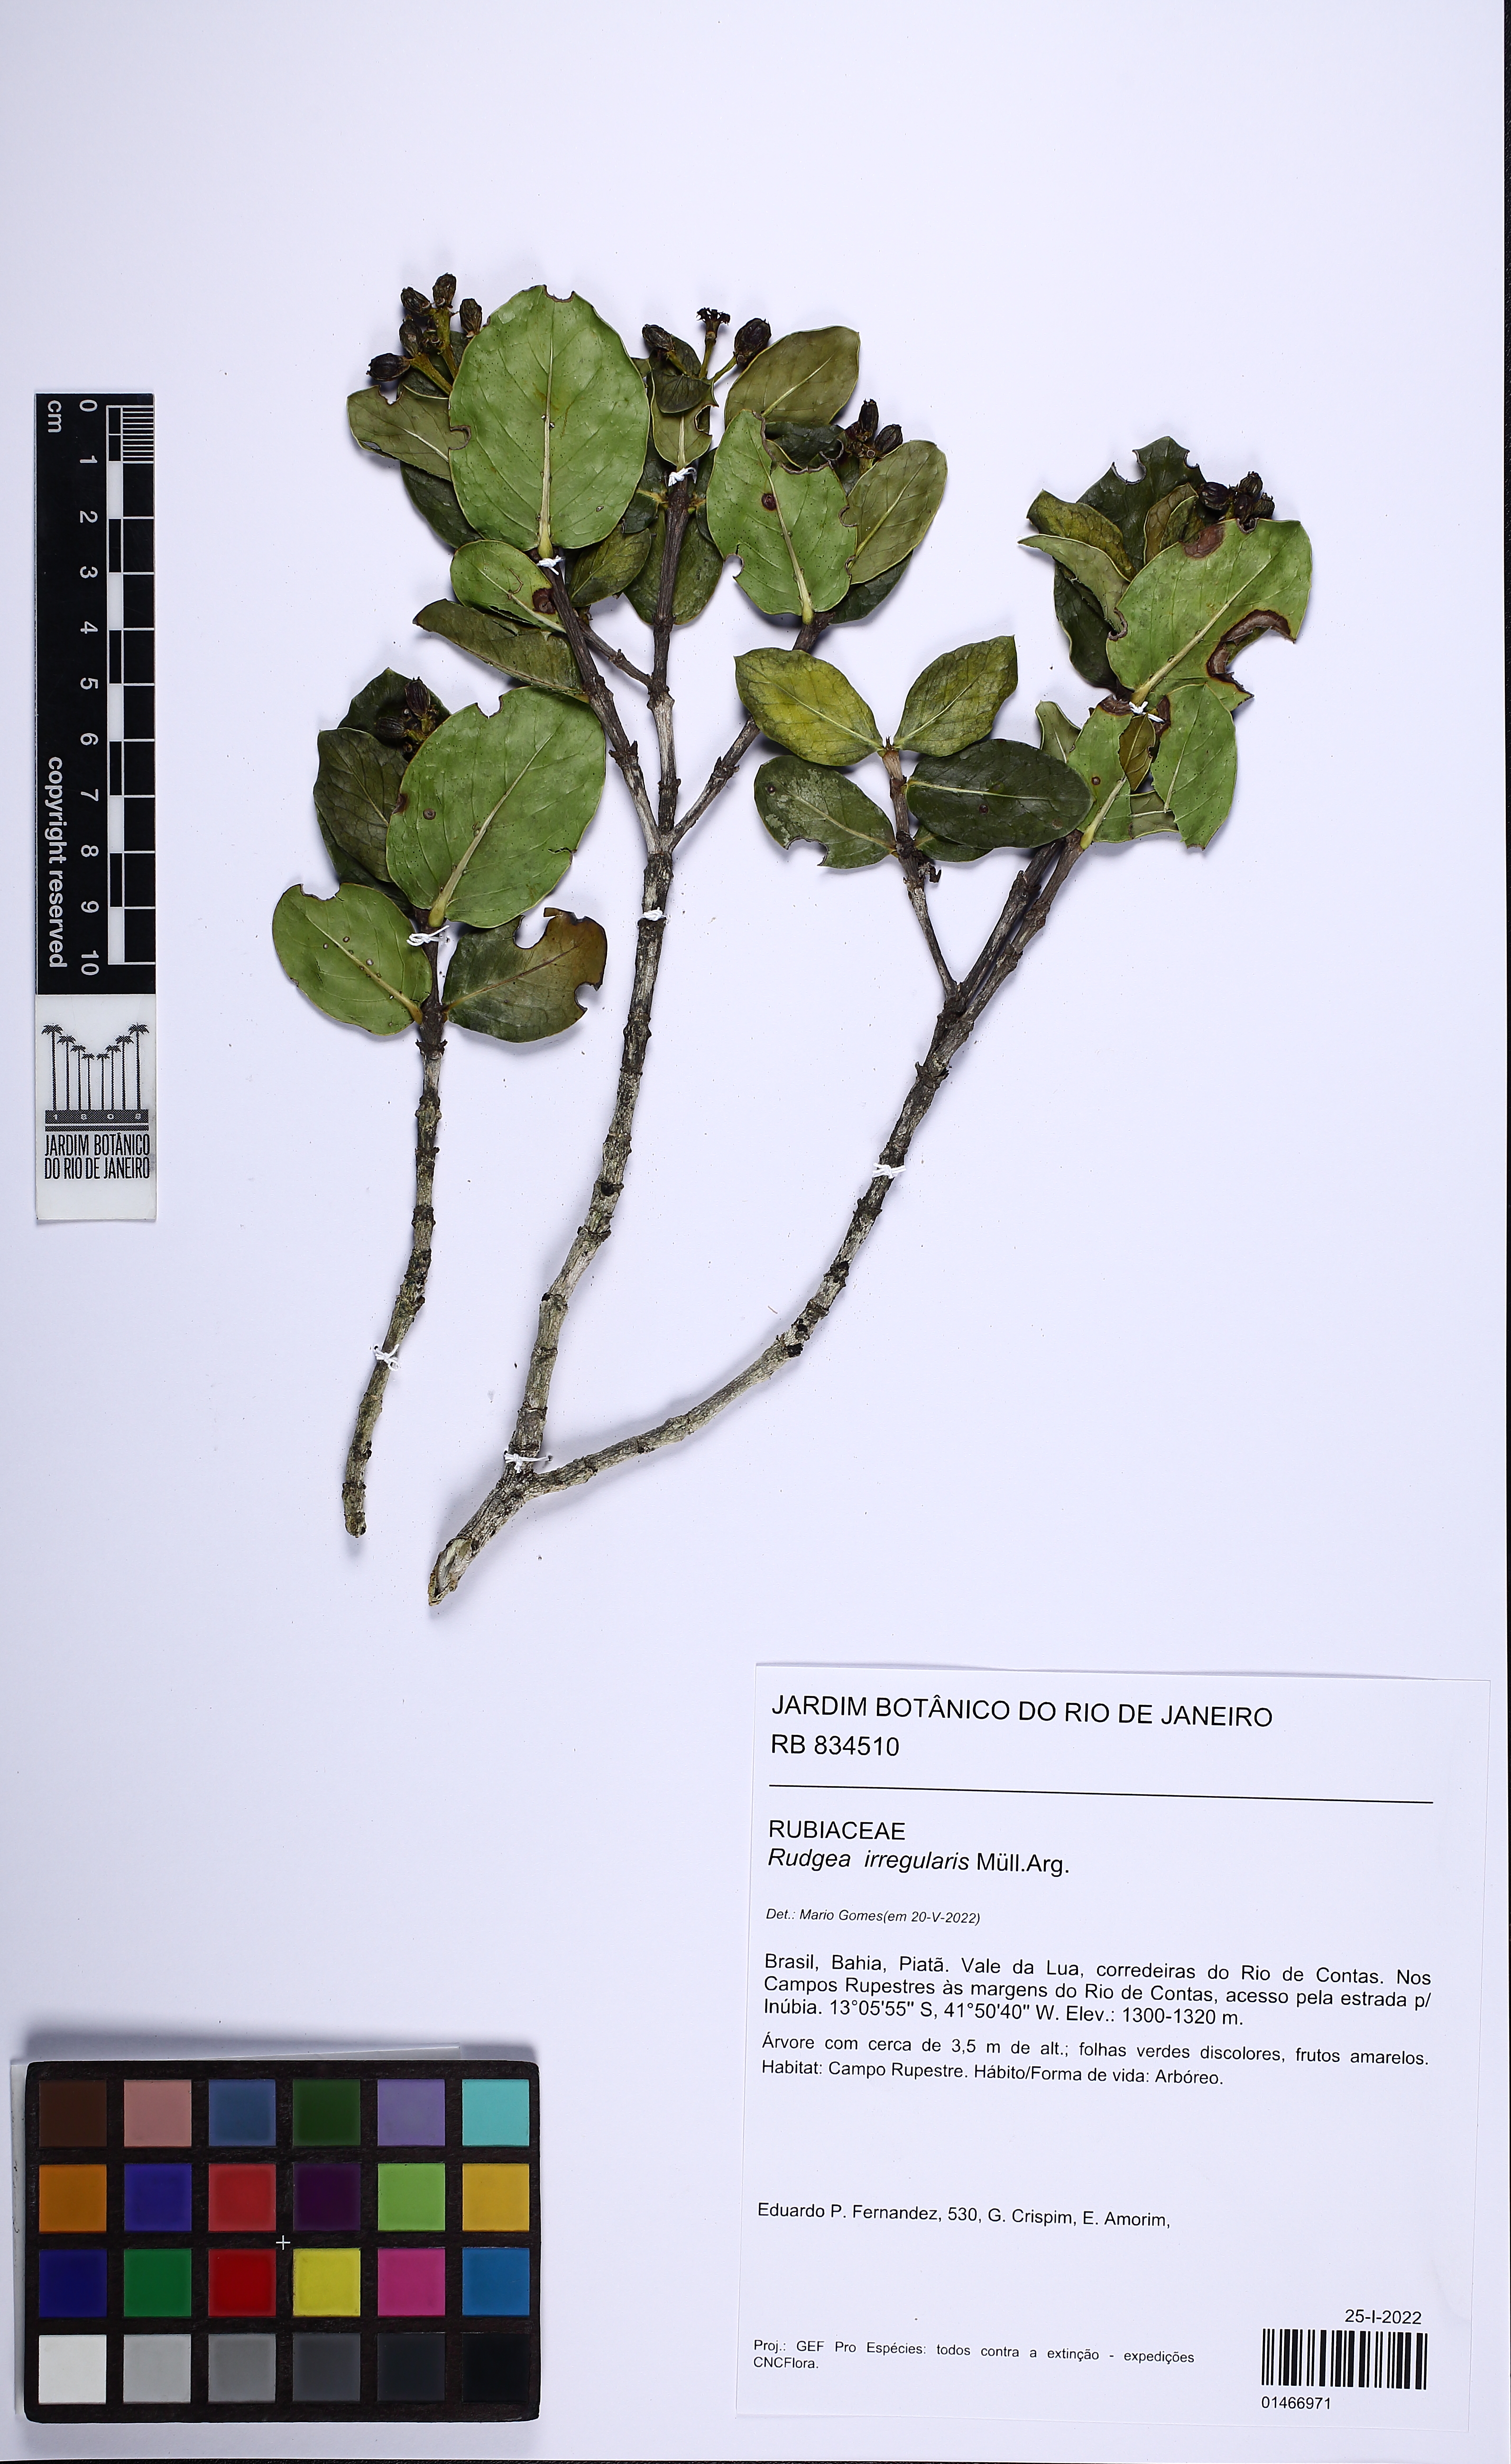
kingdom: Plantae
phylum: Tracheophyta
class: Magnoliopsida
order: Gentianales
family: Rubiaceae
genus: Rudgea
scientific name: Rudgea irregularis
